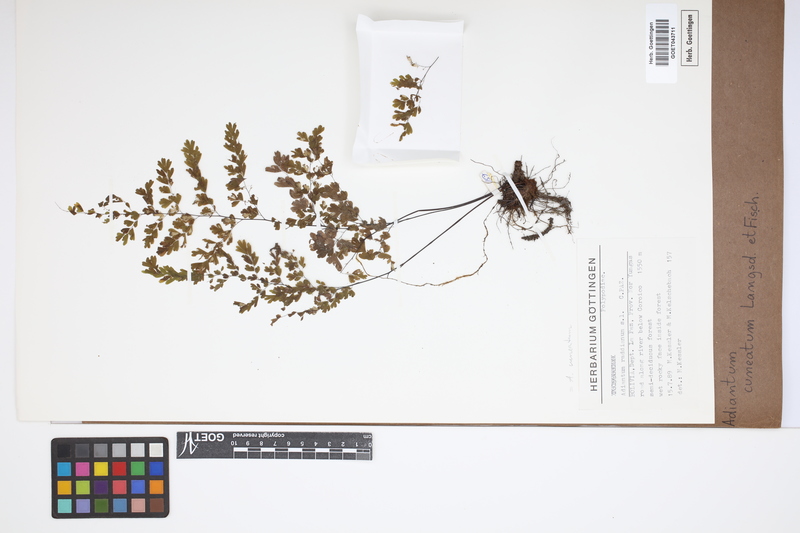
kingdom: Plantae
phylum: Tracheophyta
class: Polypodiopsida
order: Polypodiales
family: Pteridaceae
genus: Adiantum
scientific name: Adiantum raddianum
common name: Delta maidenhair fern
